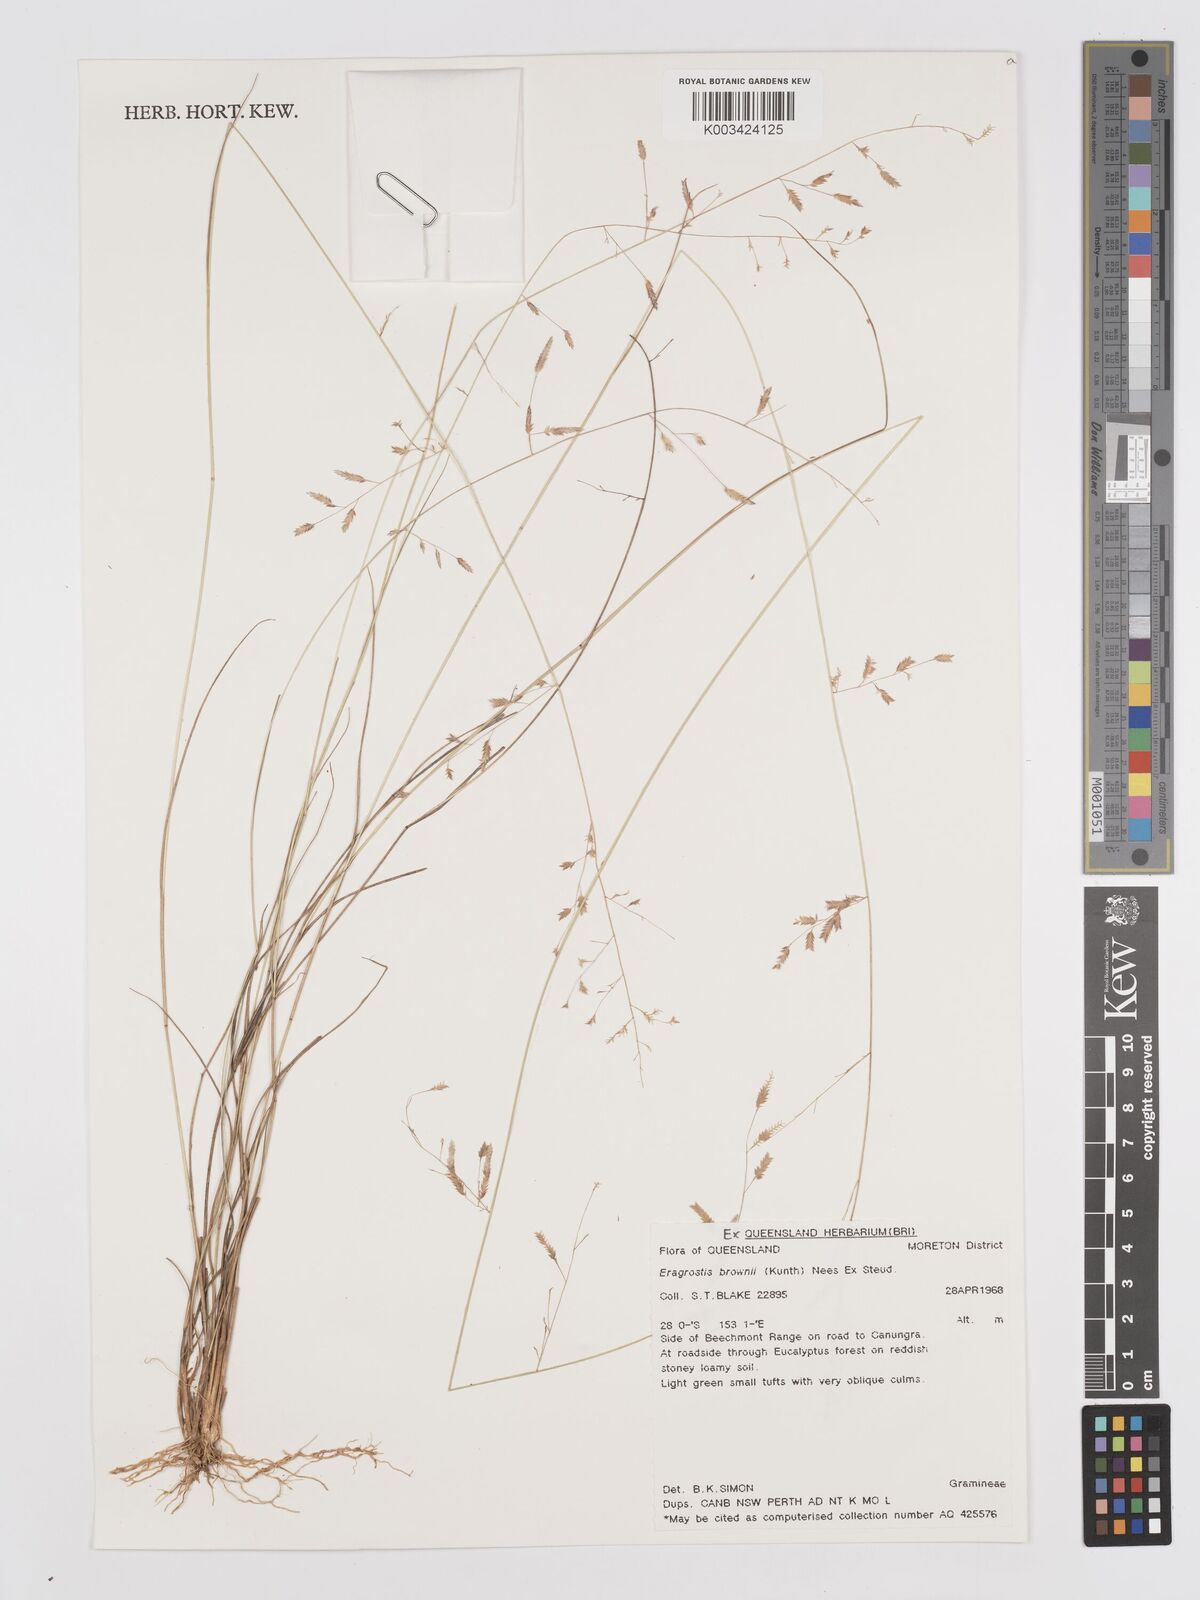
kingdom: Plantae
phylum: Tracheophyta
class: Liliopsida
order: Poales
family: Poaceae
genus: Eragrostis
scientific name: Eragrostis brownii
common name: Lovegrass
